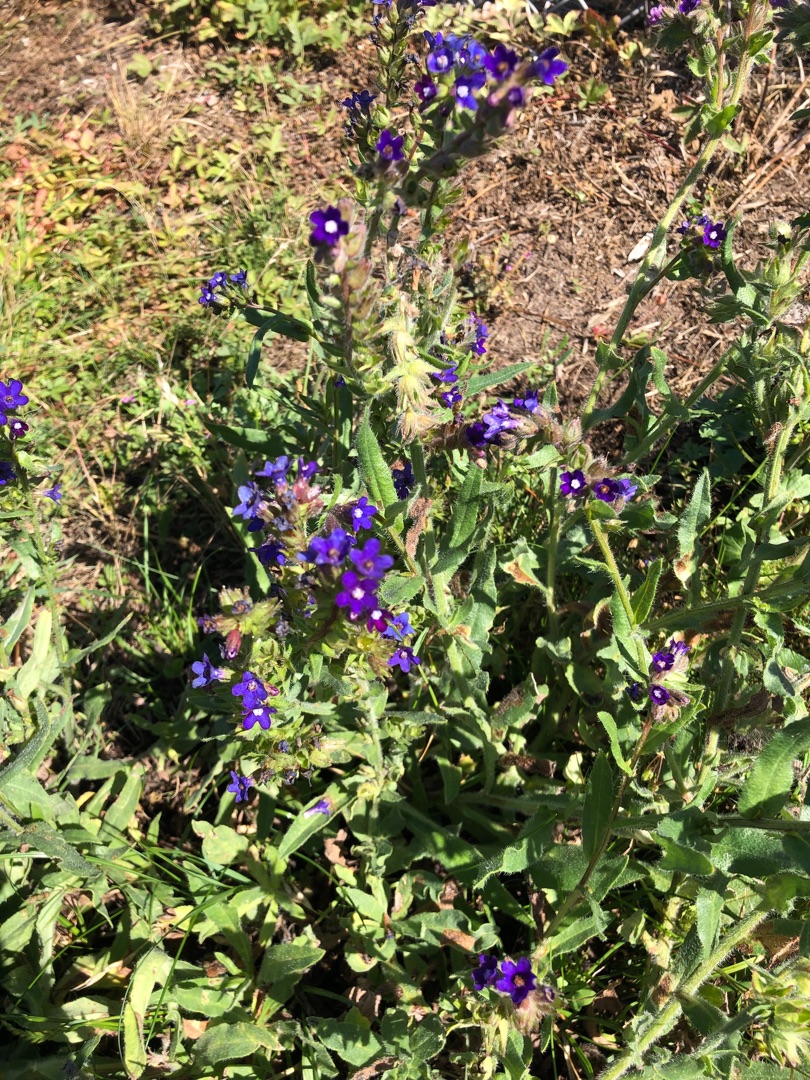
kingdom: Plantae
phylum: Tracheophyta
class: Magnoliopsida
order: Boraginales
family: Boraginaceae
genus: Anchusa
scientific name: Anchusa officinalis
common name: Læge-oksetunge
